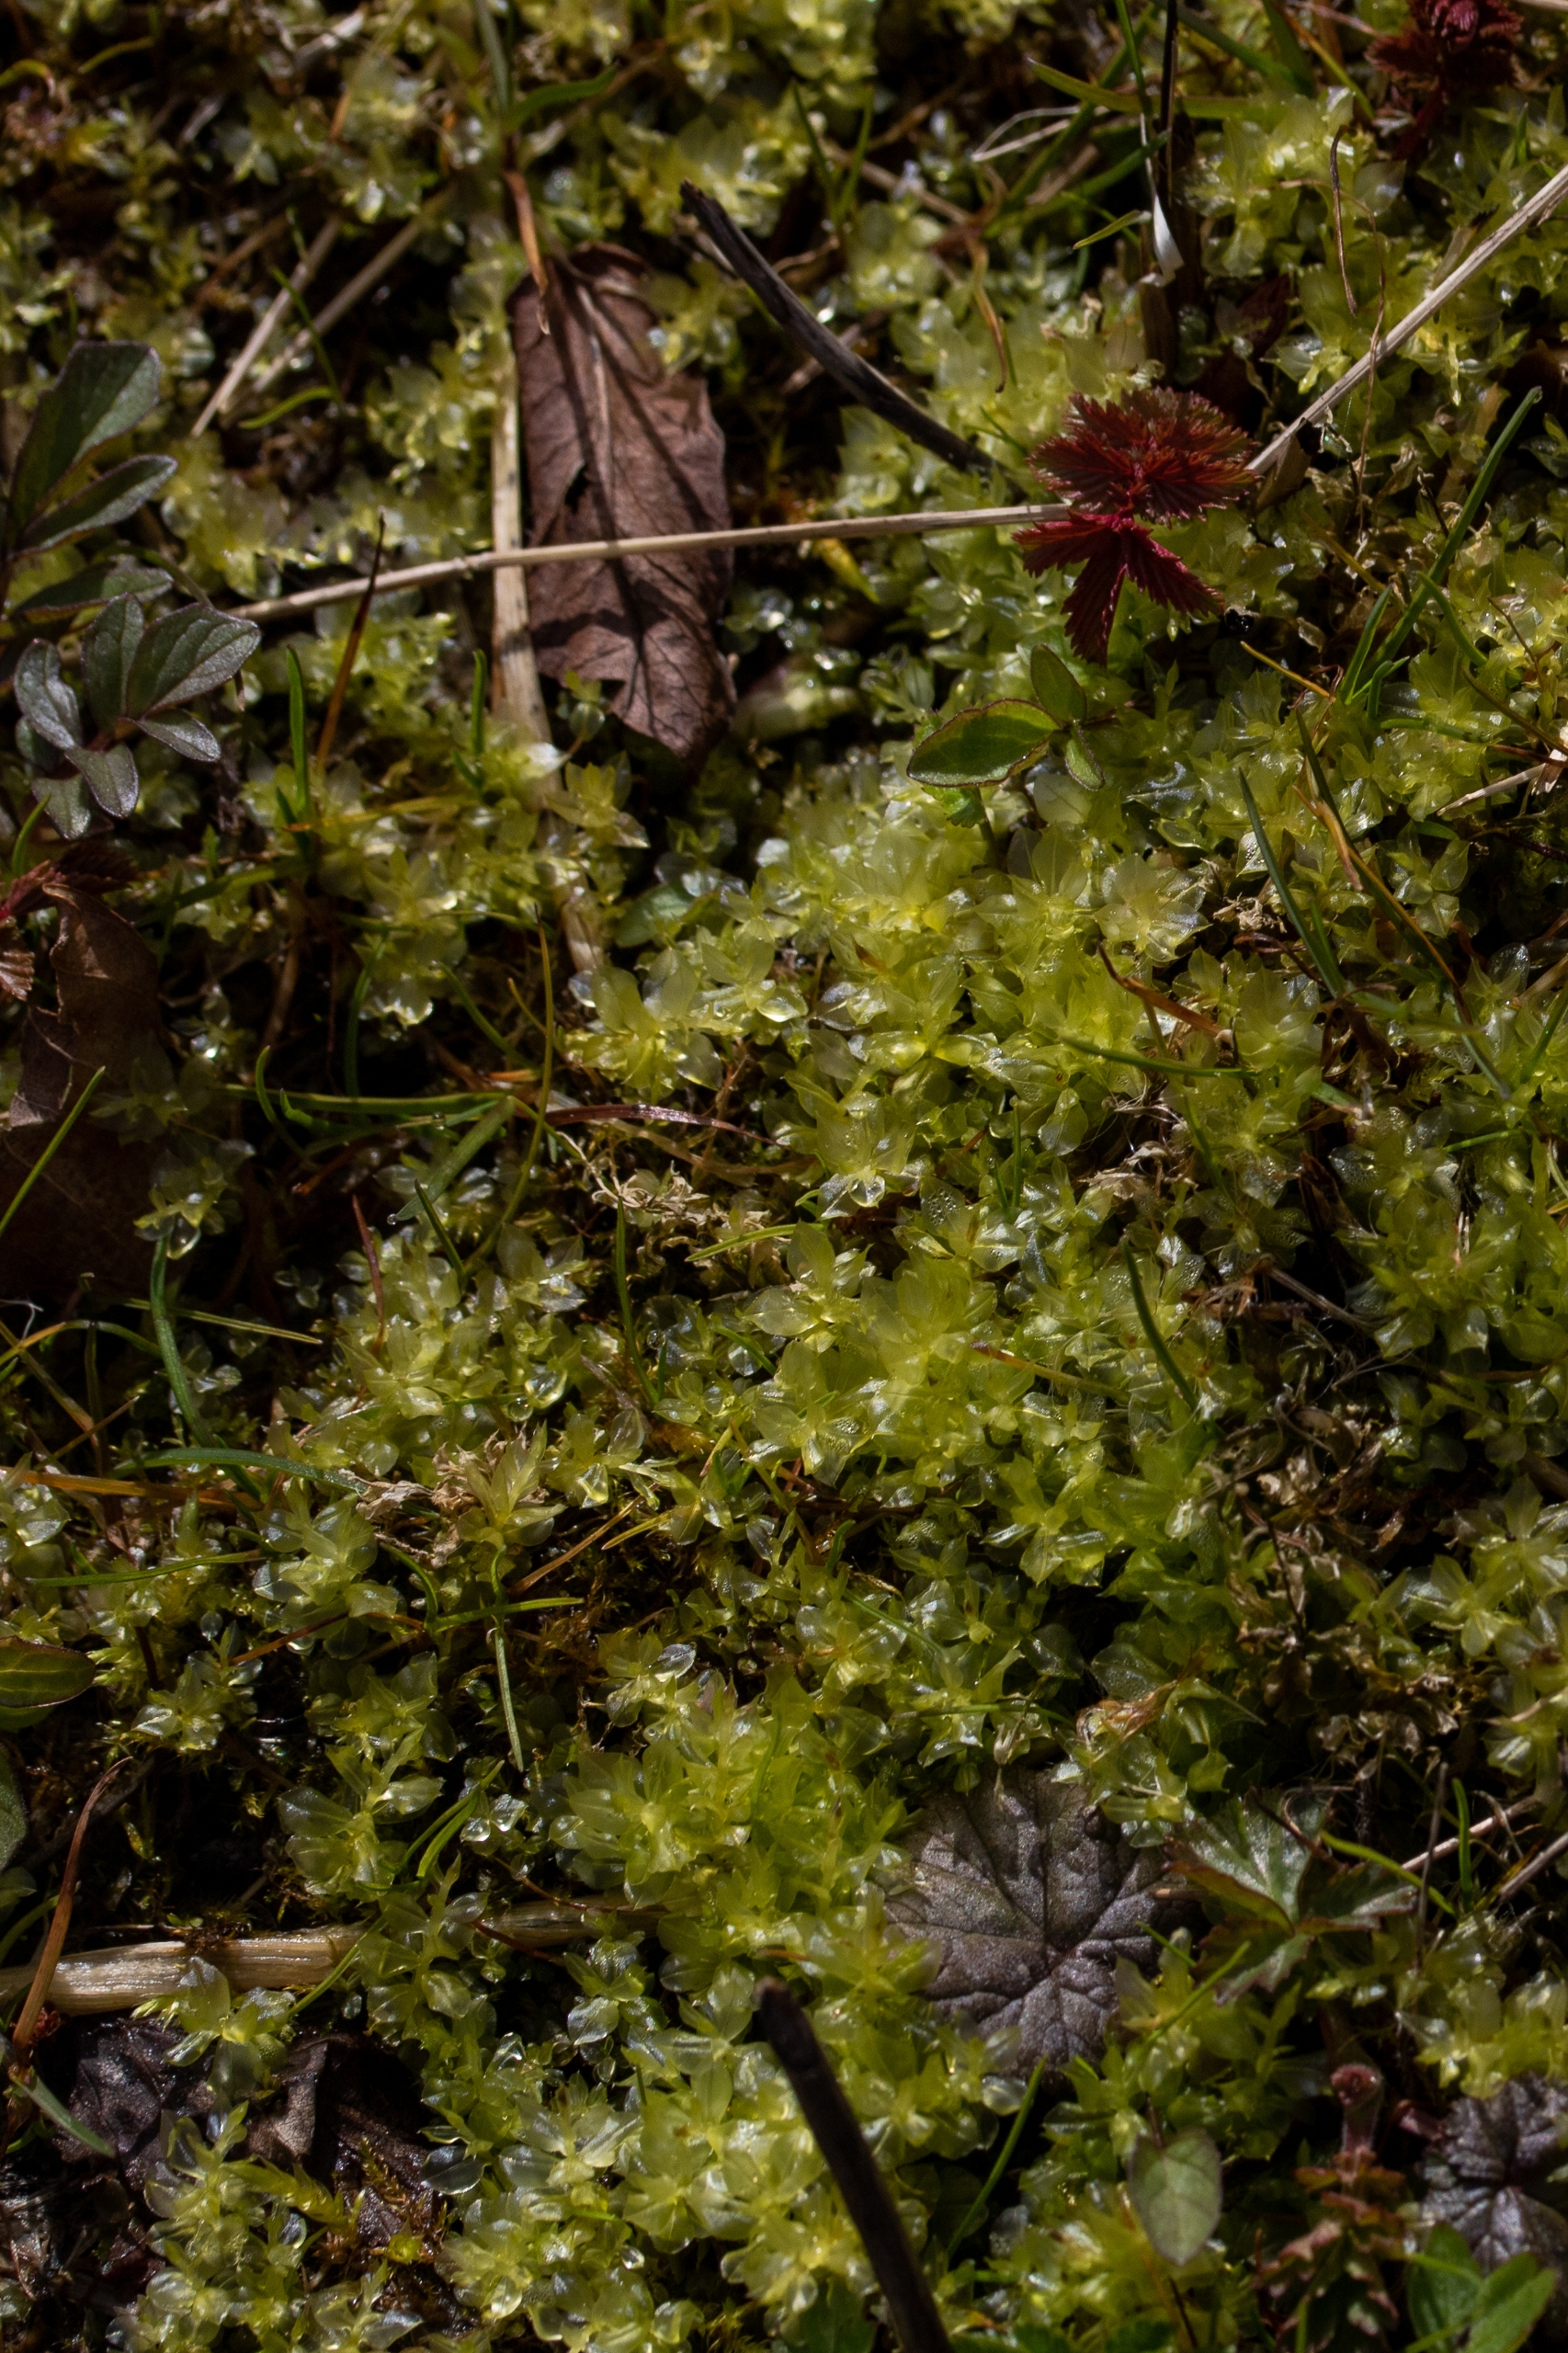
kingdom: Plantae
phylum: Bryophyta
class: Bryopsida
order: Bryales
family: Mniaceae
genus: Plagiomnium
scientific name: Plagiomnium
